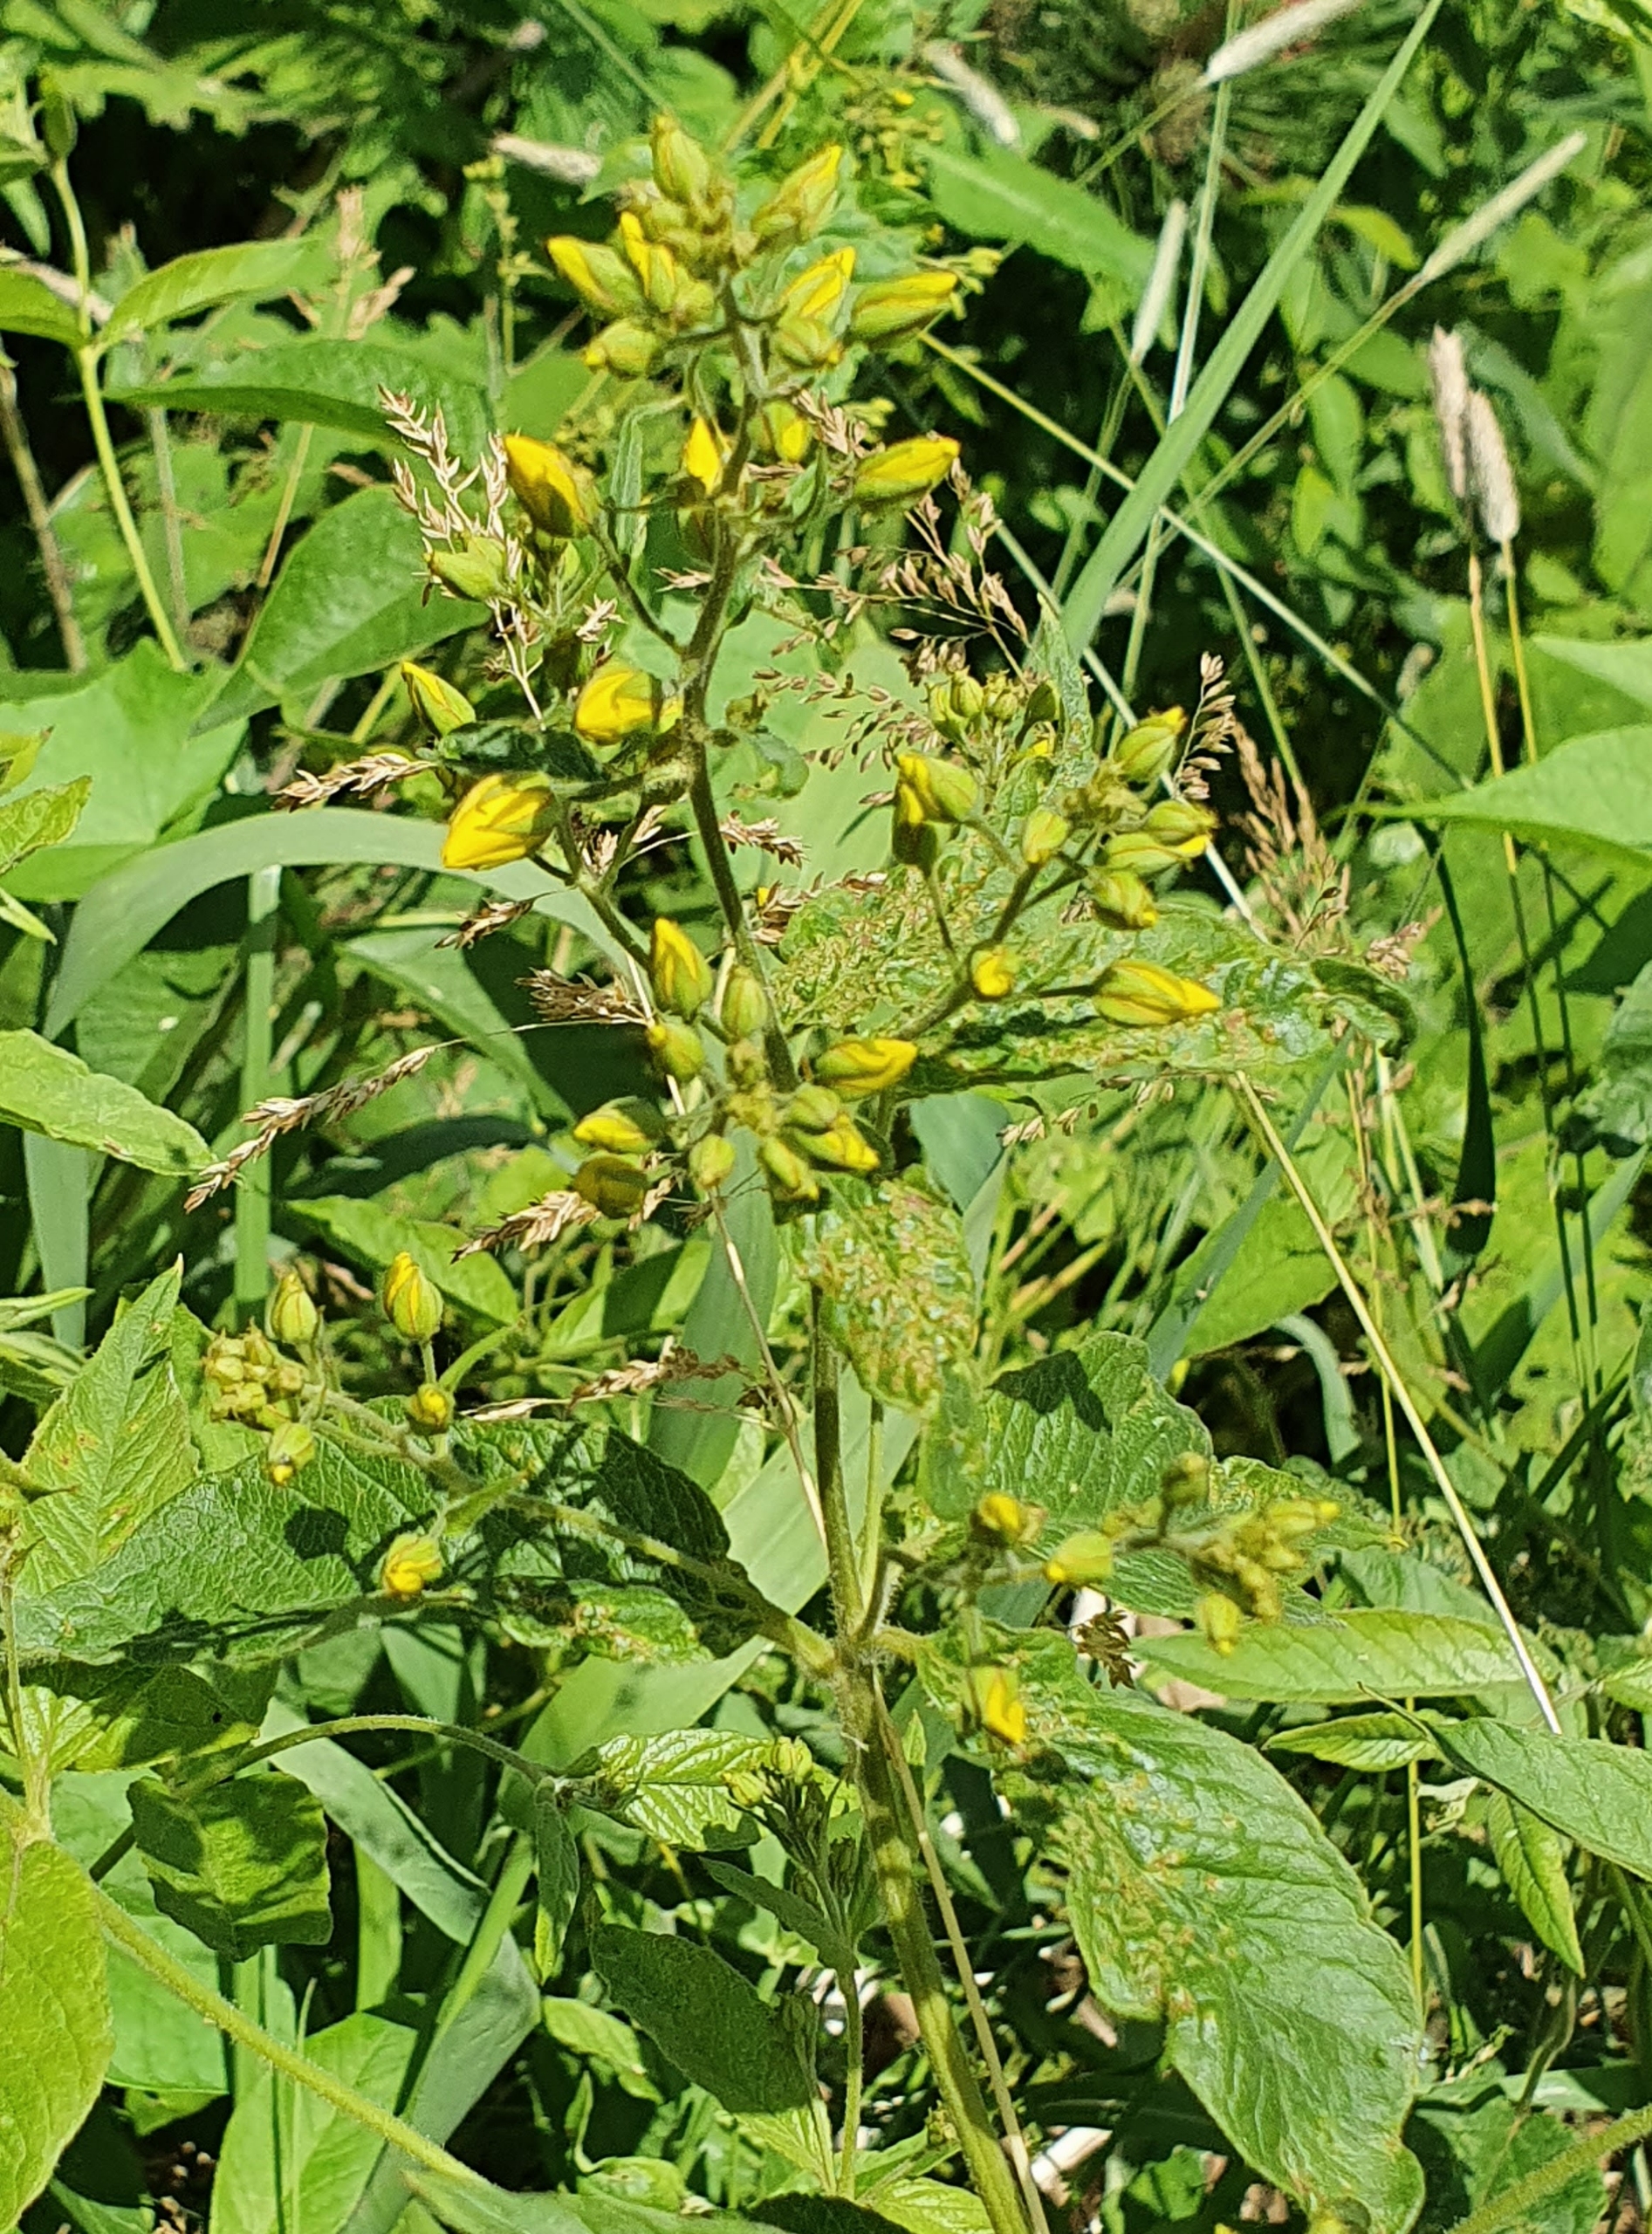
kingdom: Plantae
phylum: Tracheophyta
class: Magnoliopsida
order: Ericales
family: Primulaceae
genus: Lysimachia
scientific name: Lysimachia vulgaris
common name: Almindelig fredløs
